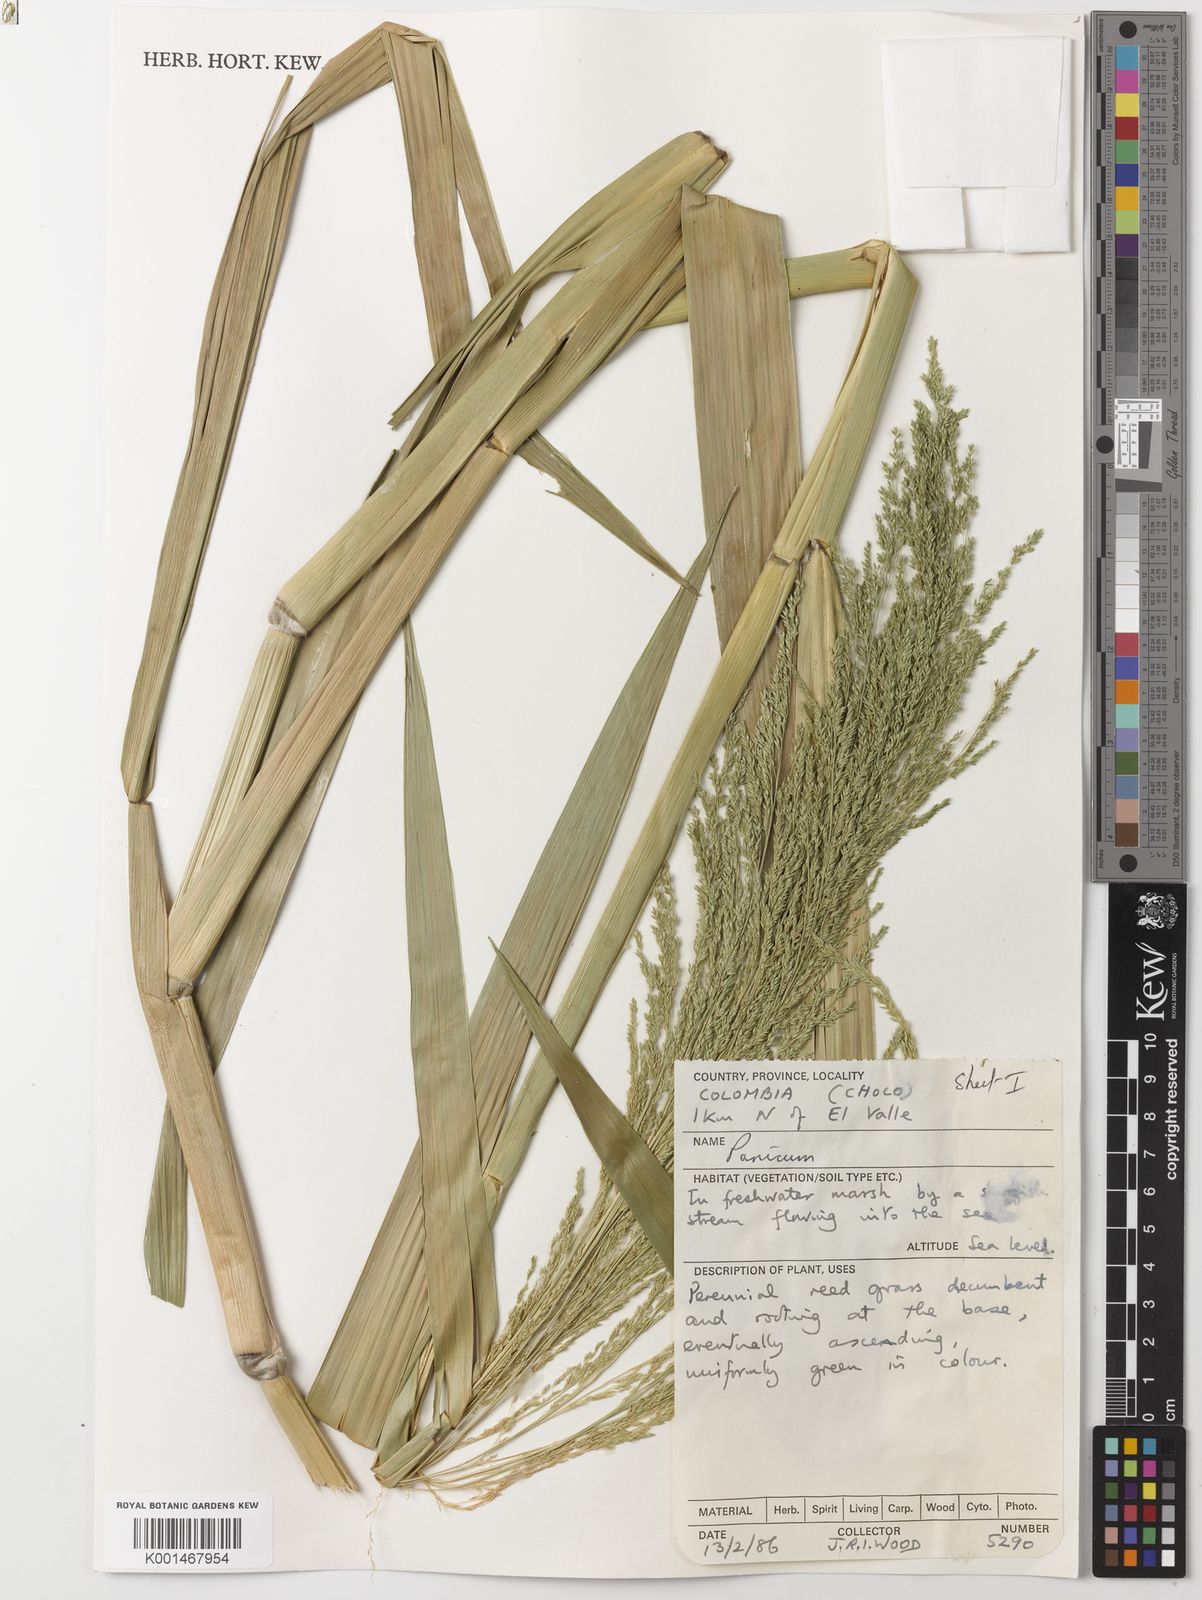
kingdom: Plantae
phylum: Tracheophyta
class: Liliopsida
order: Poales
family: Poaceae
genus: Hymenachne
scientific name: Hymenachne grandis
